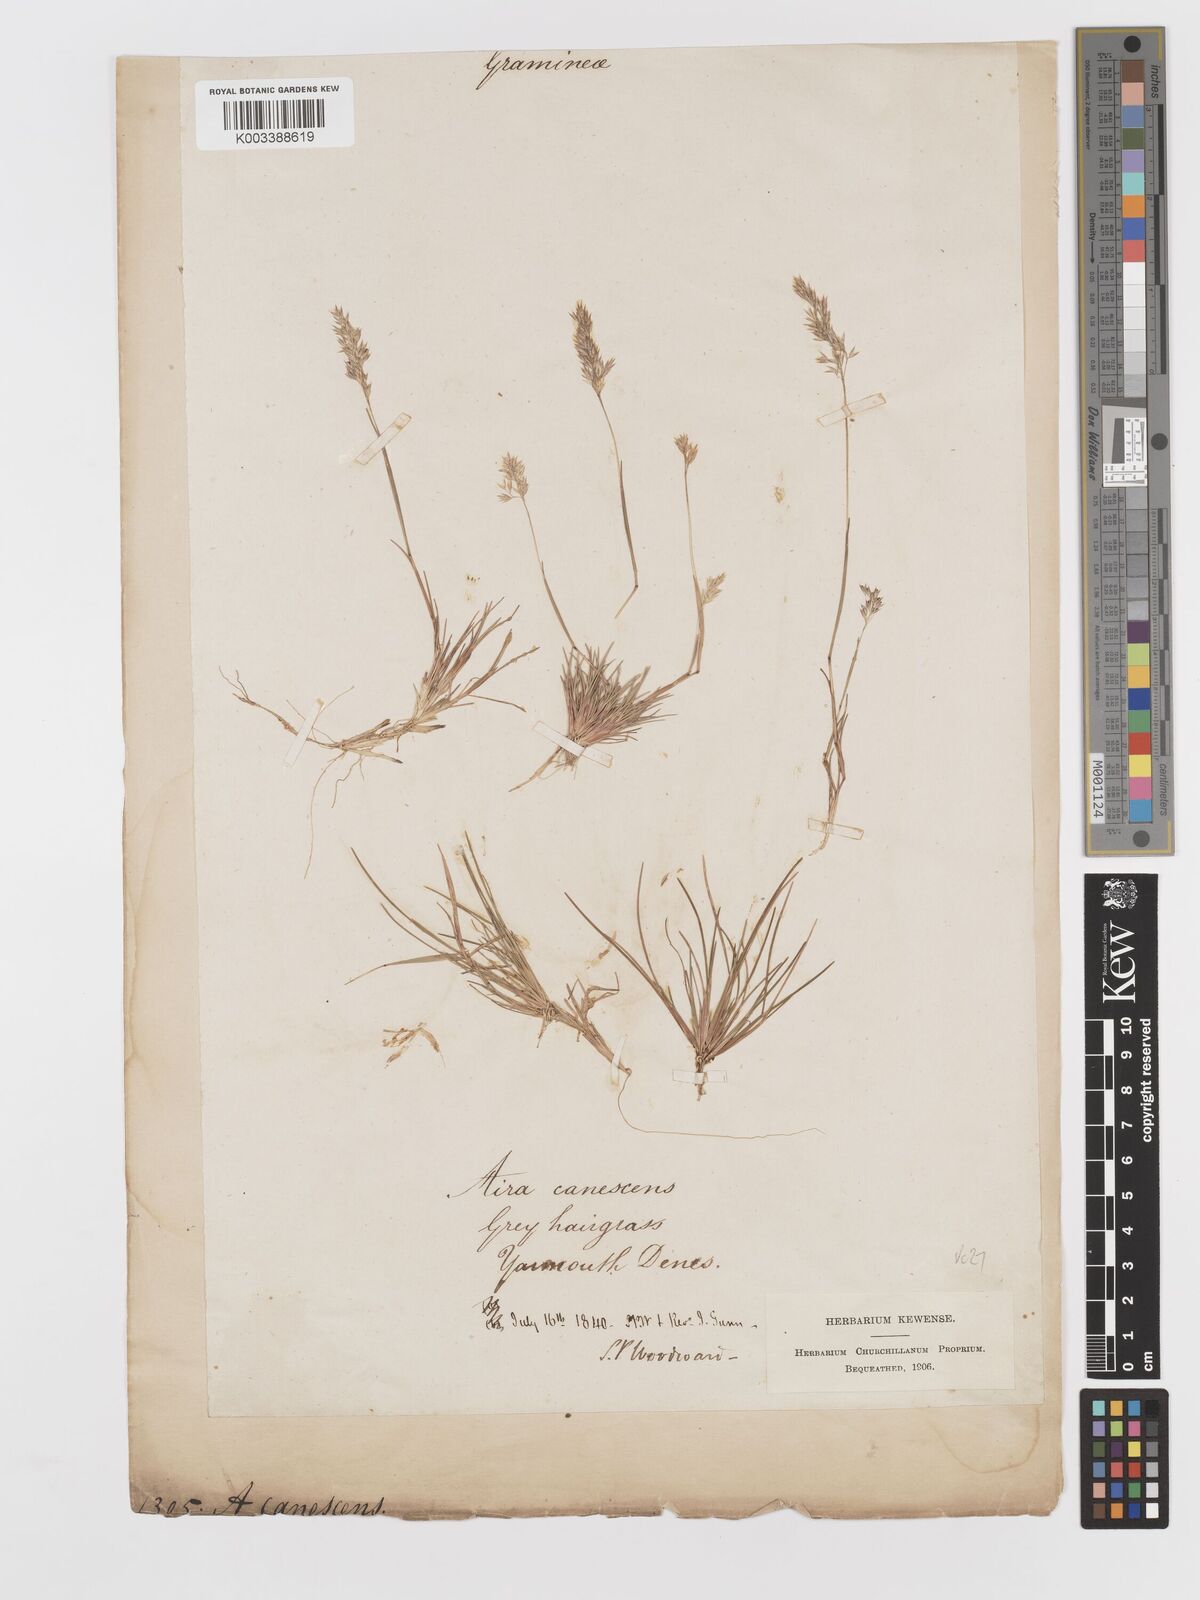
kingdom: Plantae
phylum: Tracheophyta
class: Liliopsida
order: Poales
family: Poaceae
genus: Corynephorus
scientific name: Corynephorus canescens
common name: Grey hair-grass
